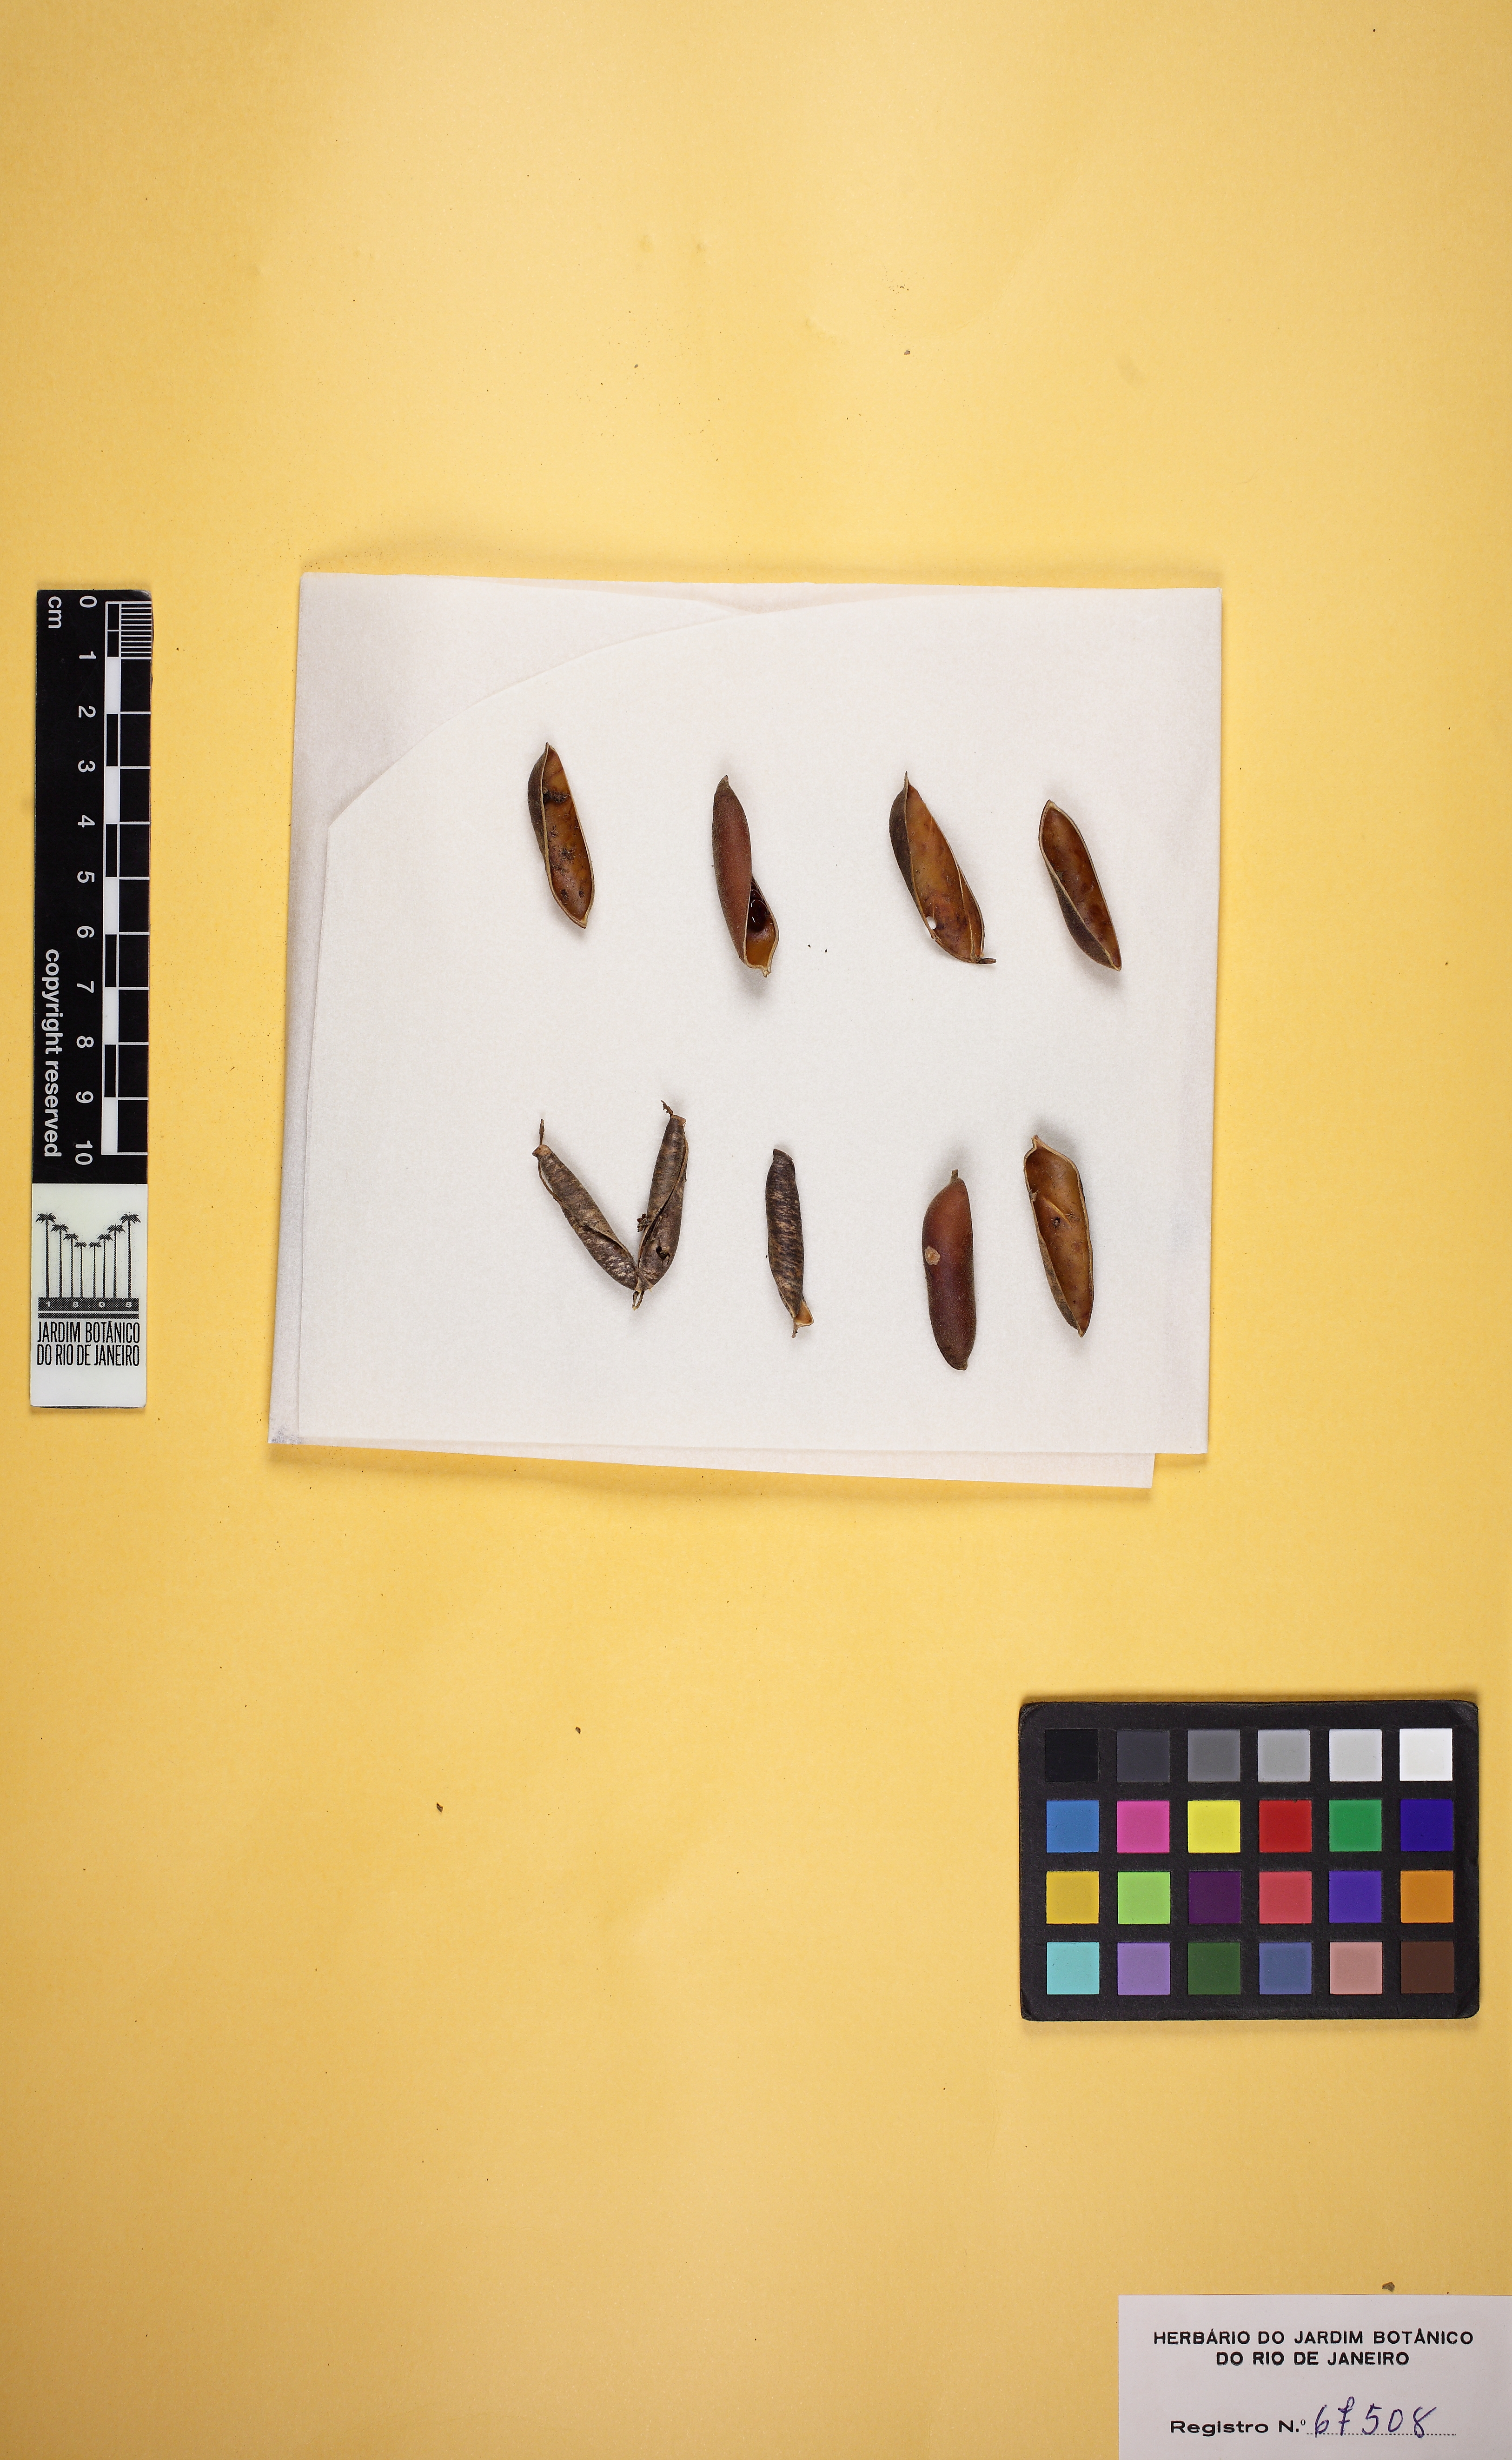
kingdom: Plantae
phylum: Tracheophyta
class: Magnoliopsida
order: Fabales
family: Fabaceae
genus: Crotalaria
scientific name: Crotalaria micans
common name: Caracas rattlebox
